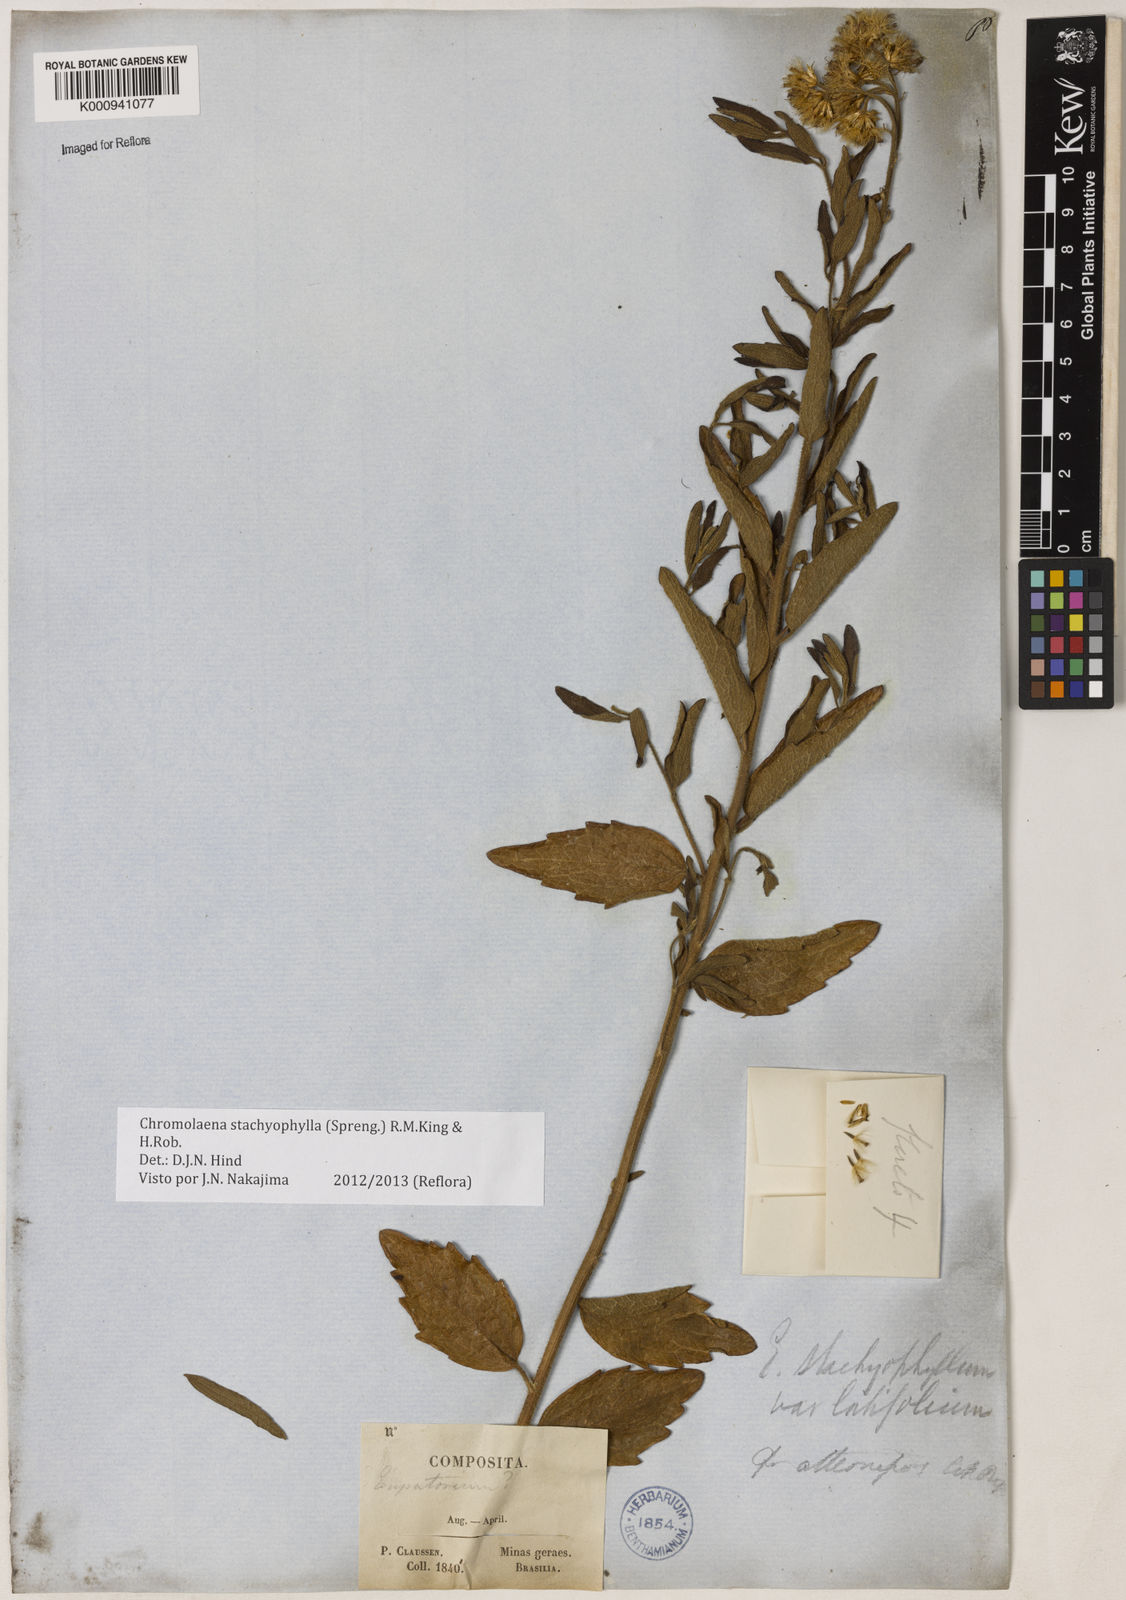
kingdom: Plantae
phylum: Tracheophyta
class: Magnoliopsida
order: Asterales
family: Asteraceae
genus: Chromolaena
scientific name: Chromolaena stachyophylla
